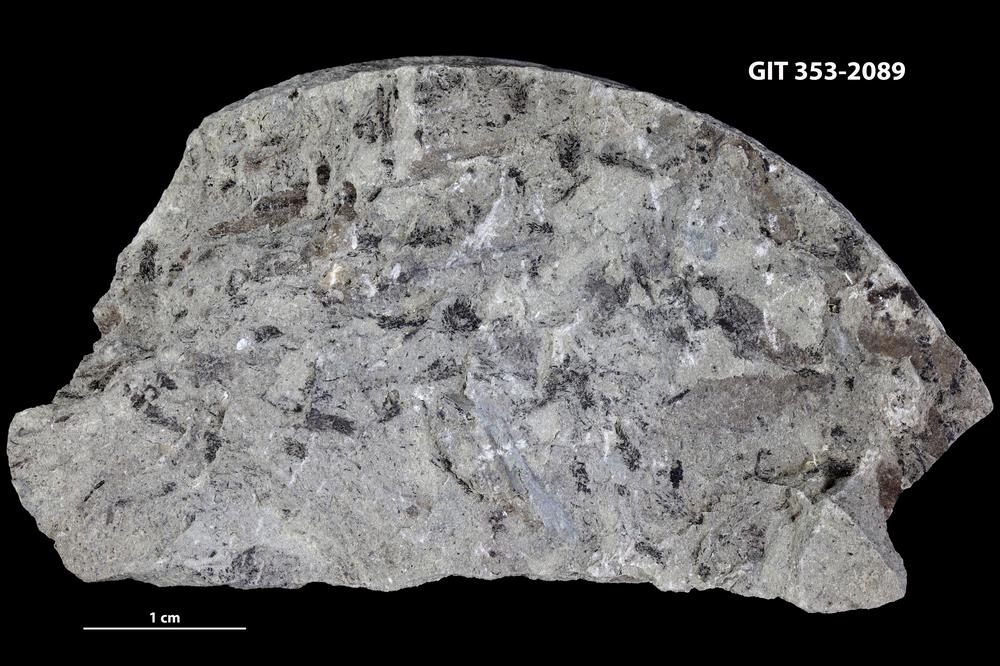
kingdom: Plantae
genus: Leveilleites
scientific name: Leveilleites hartnageli
